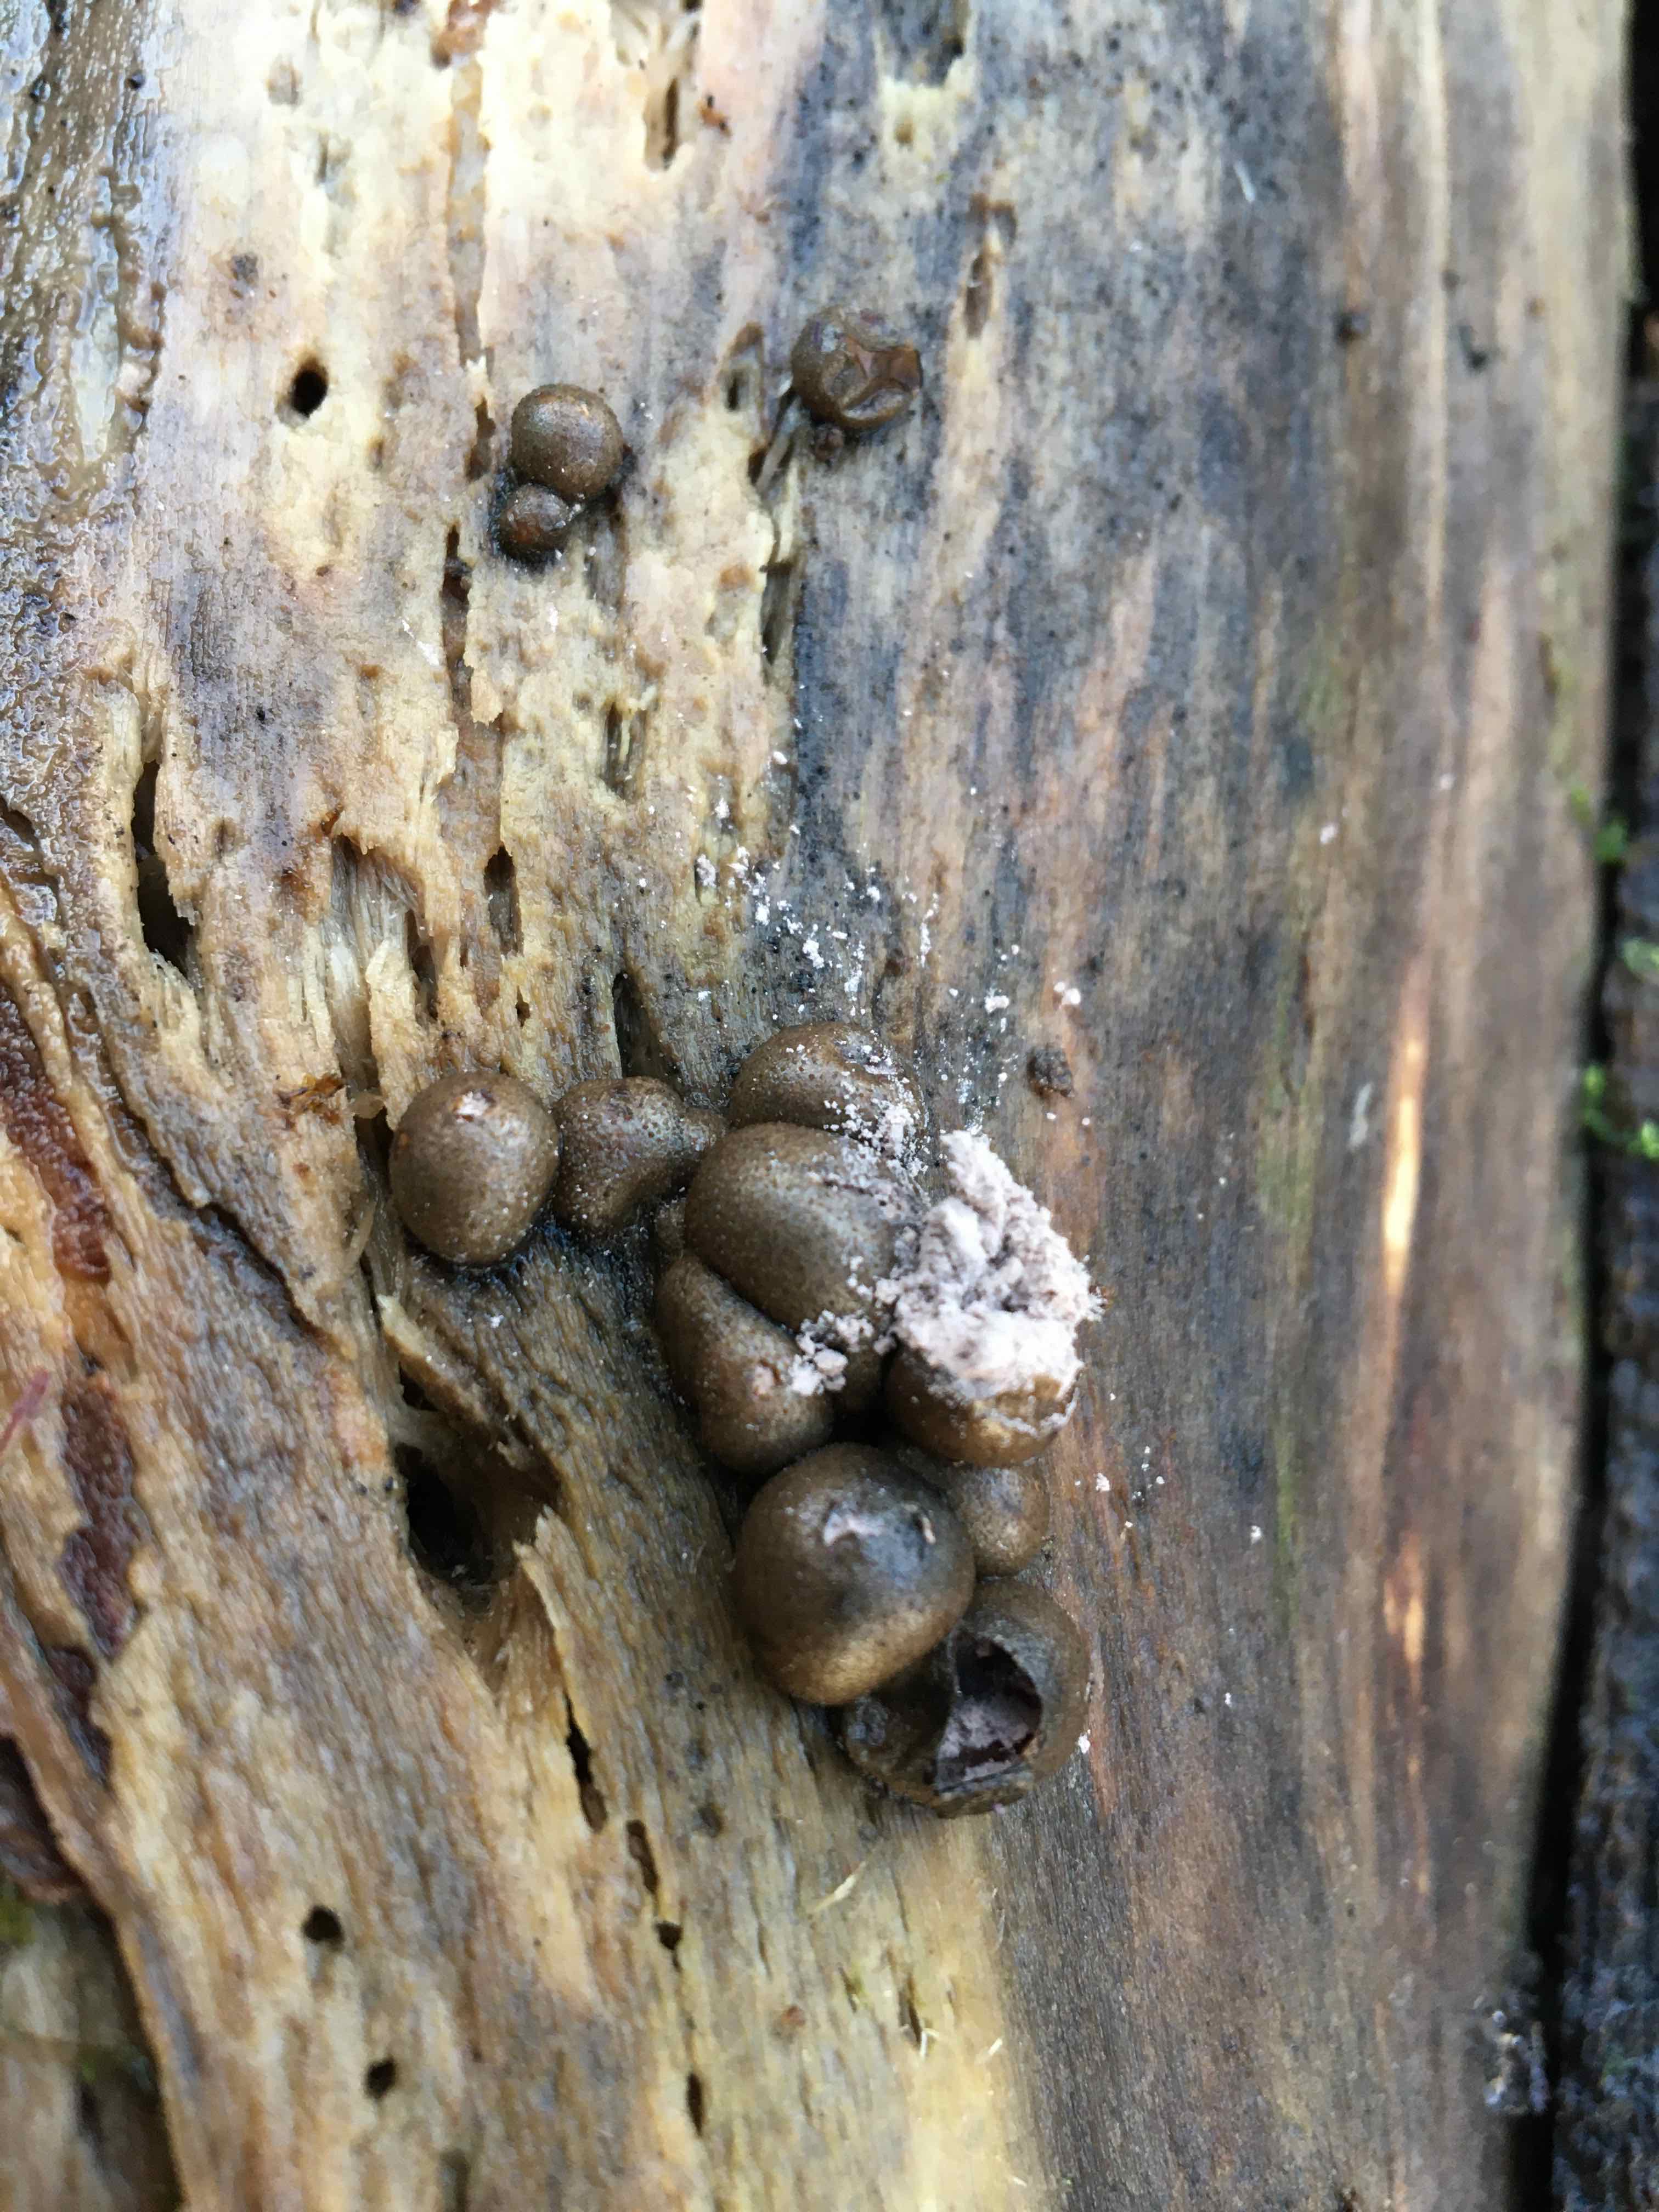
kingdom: Protozoa
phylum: Mycetozoa
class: Myxomycetes
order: Cribrariales
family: Tubiferaceae
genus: Lycogala
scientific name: Lycogala epidendrum
